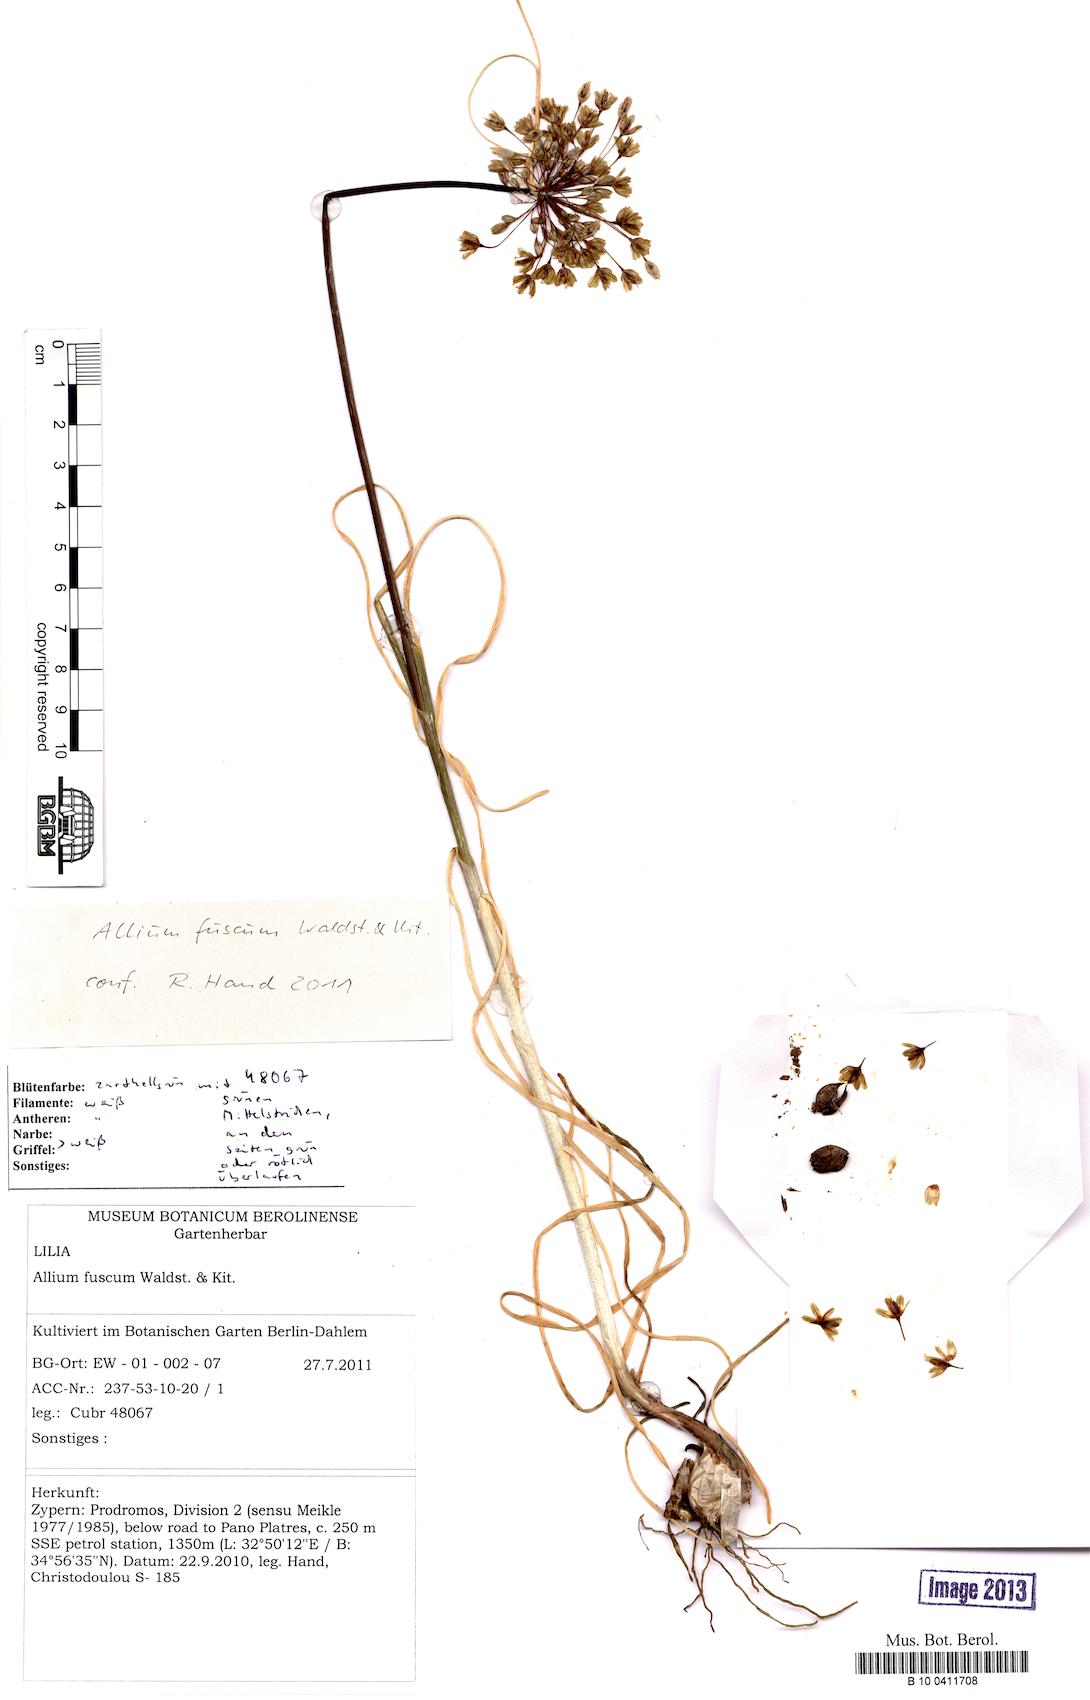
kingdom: Plantae
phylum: Tracheophyta
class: Liliopsida
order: Asparagales
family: Amaryllidaceae
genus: Allium
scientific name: Allium longispathum
